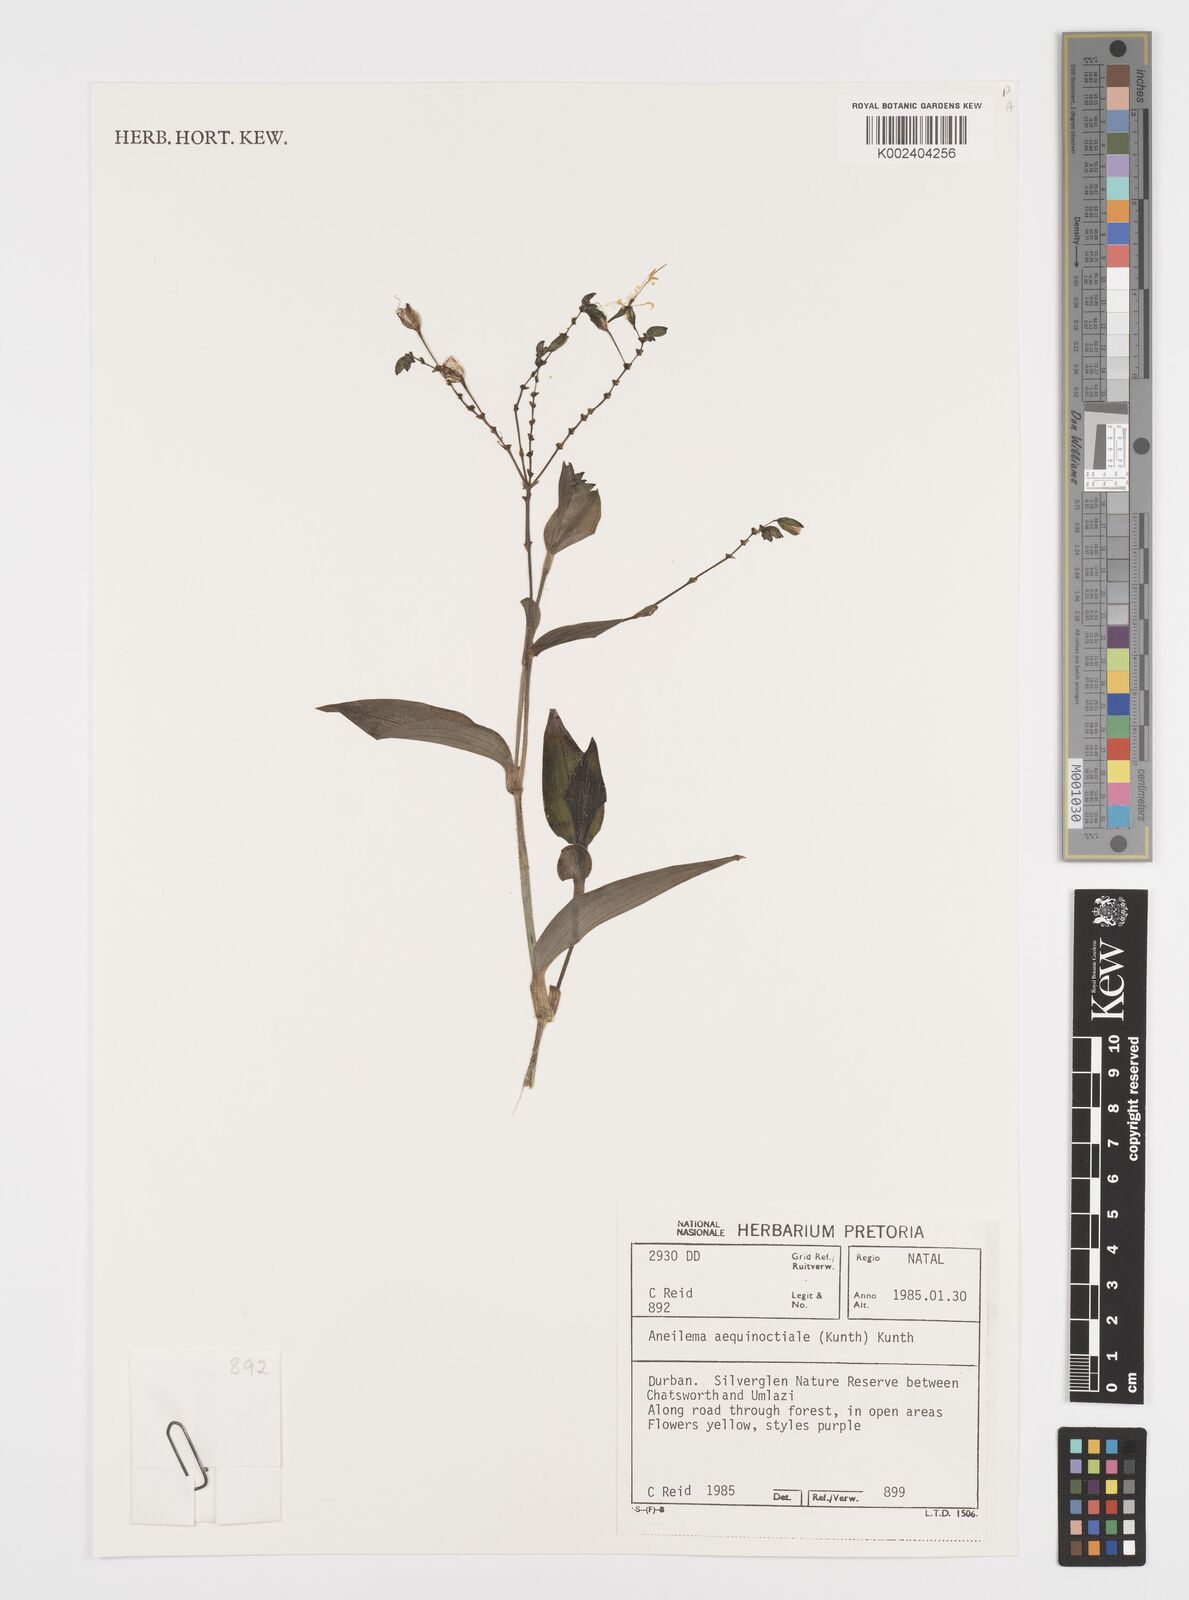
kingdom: Plantae
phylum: Tracheophyta
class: Liliopsida
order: Commelinales
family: Commelinaceae
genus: Aneilema
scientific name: Aneilema aequinoctiale
